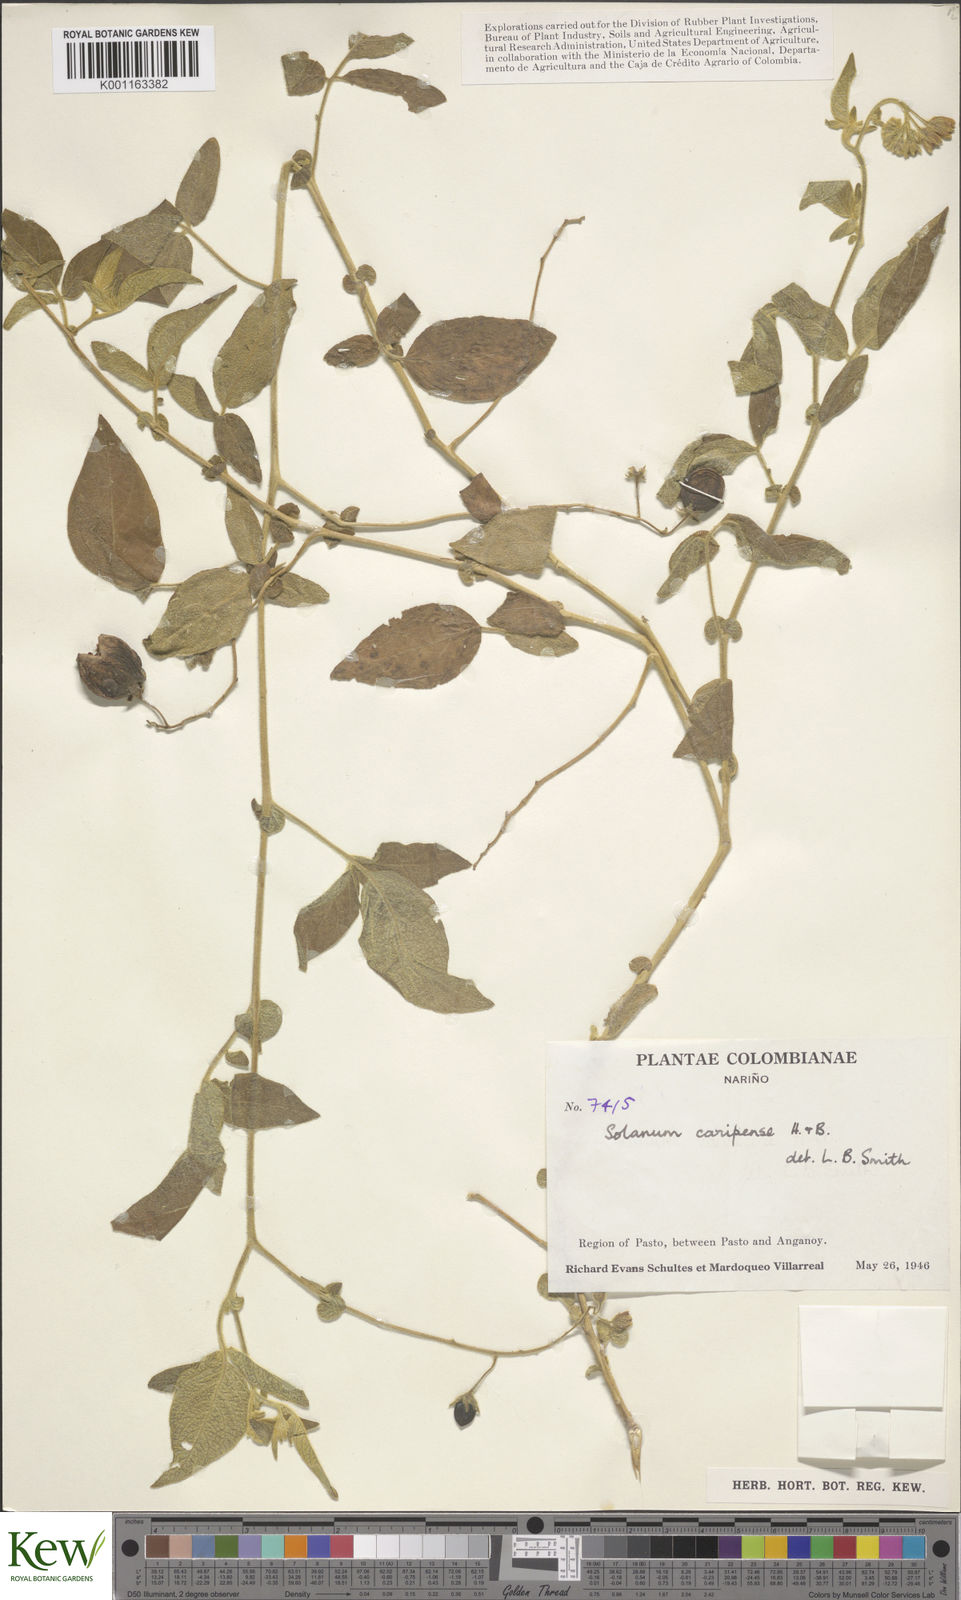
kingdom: Plantae
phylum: Tracheophyta
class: Magnoliopsida
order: Solanales
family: Solanaceae
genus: Solanum
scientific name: Solanum caripense
